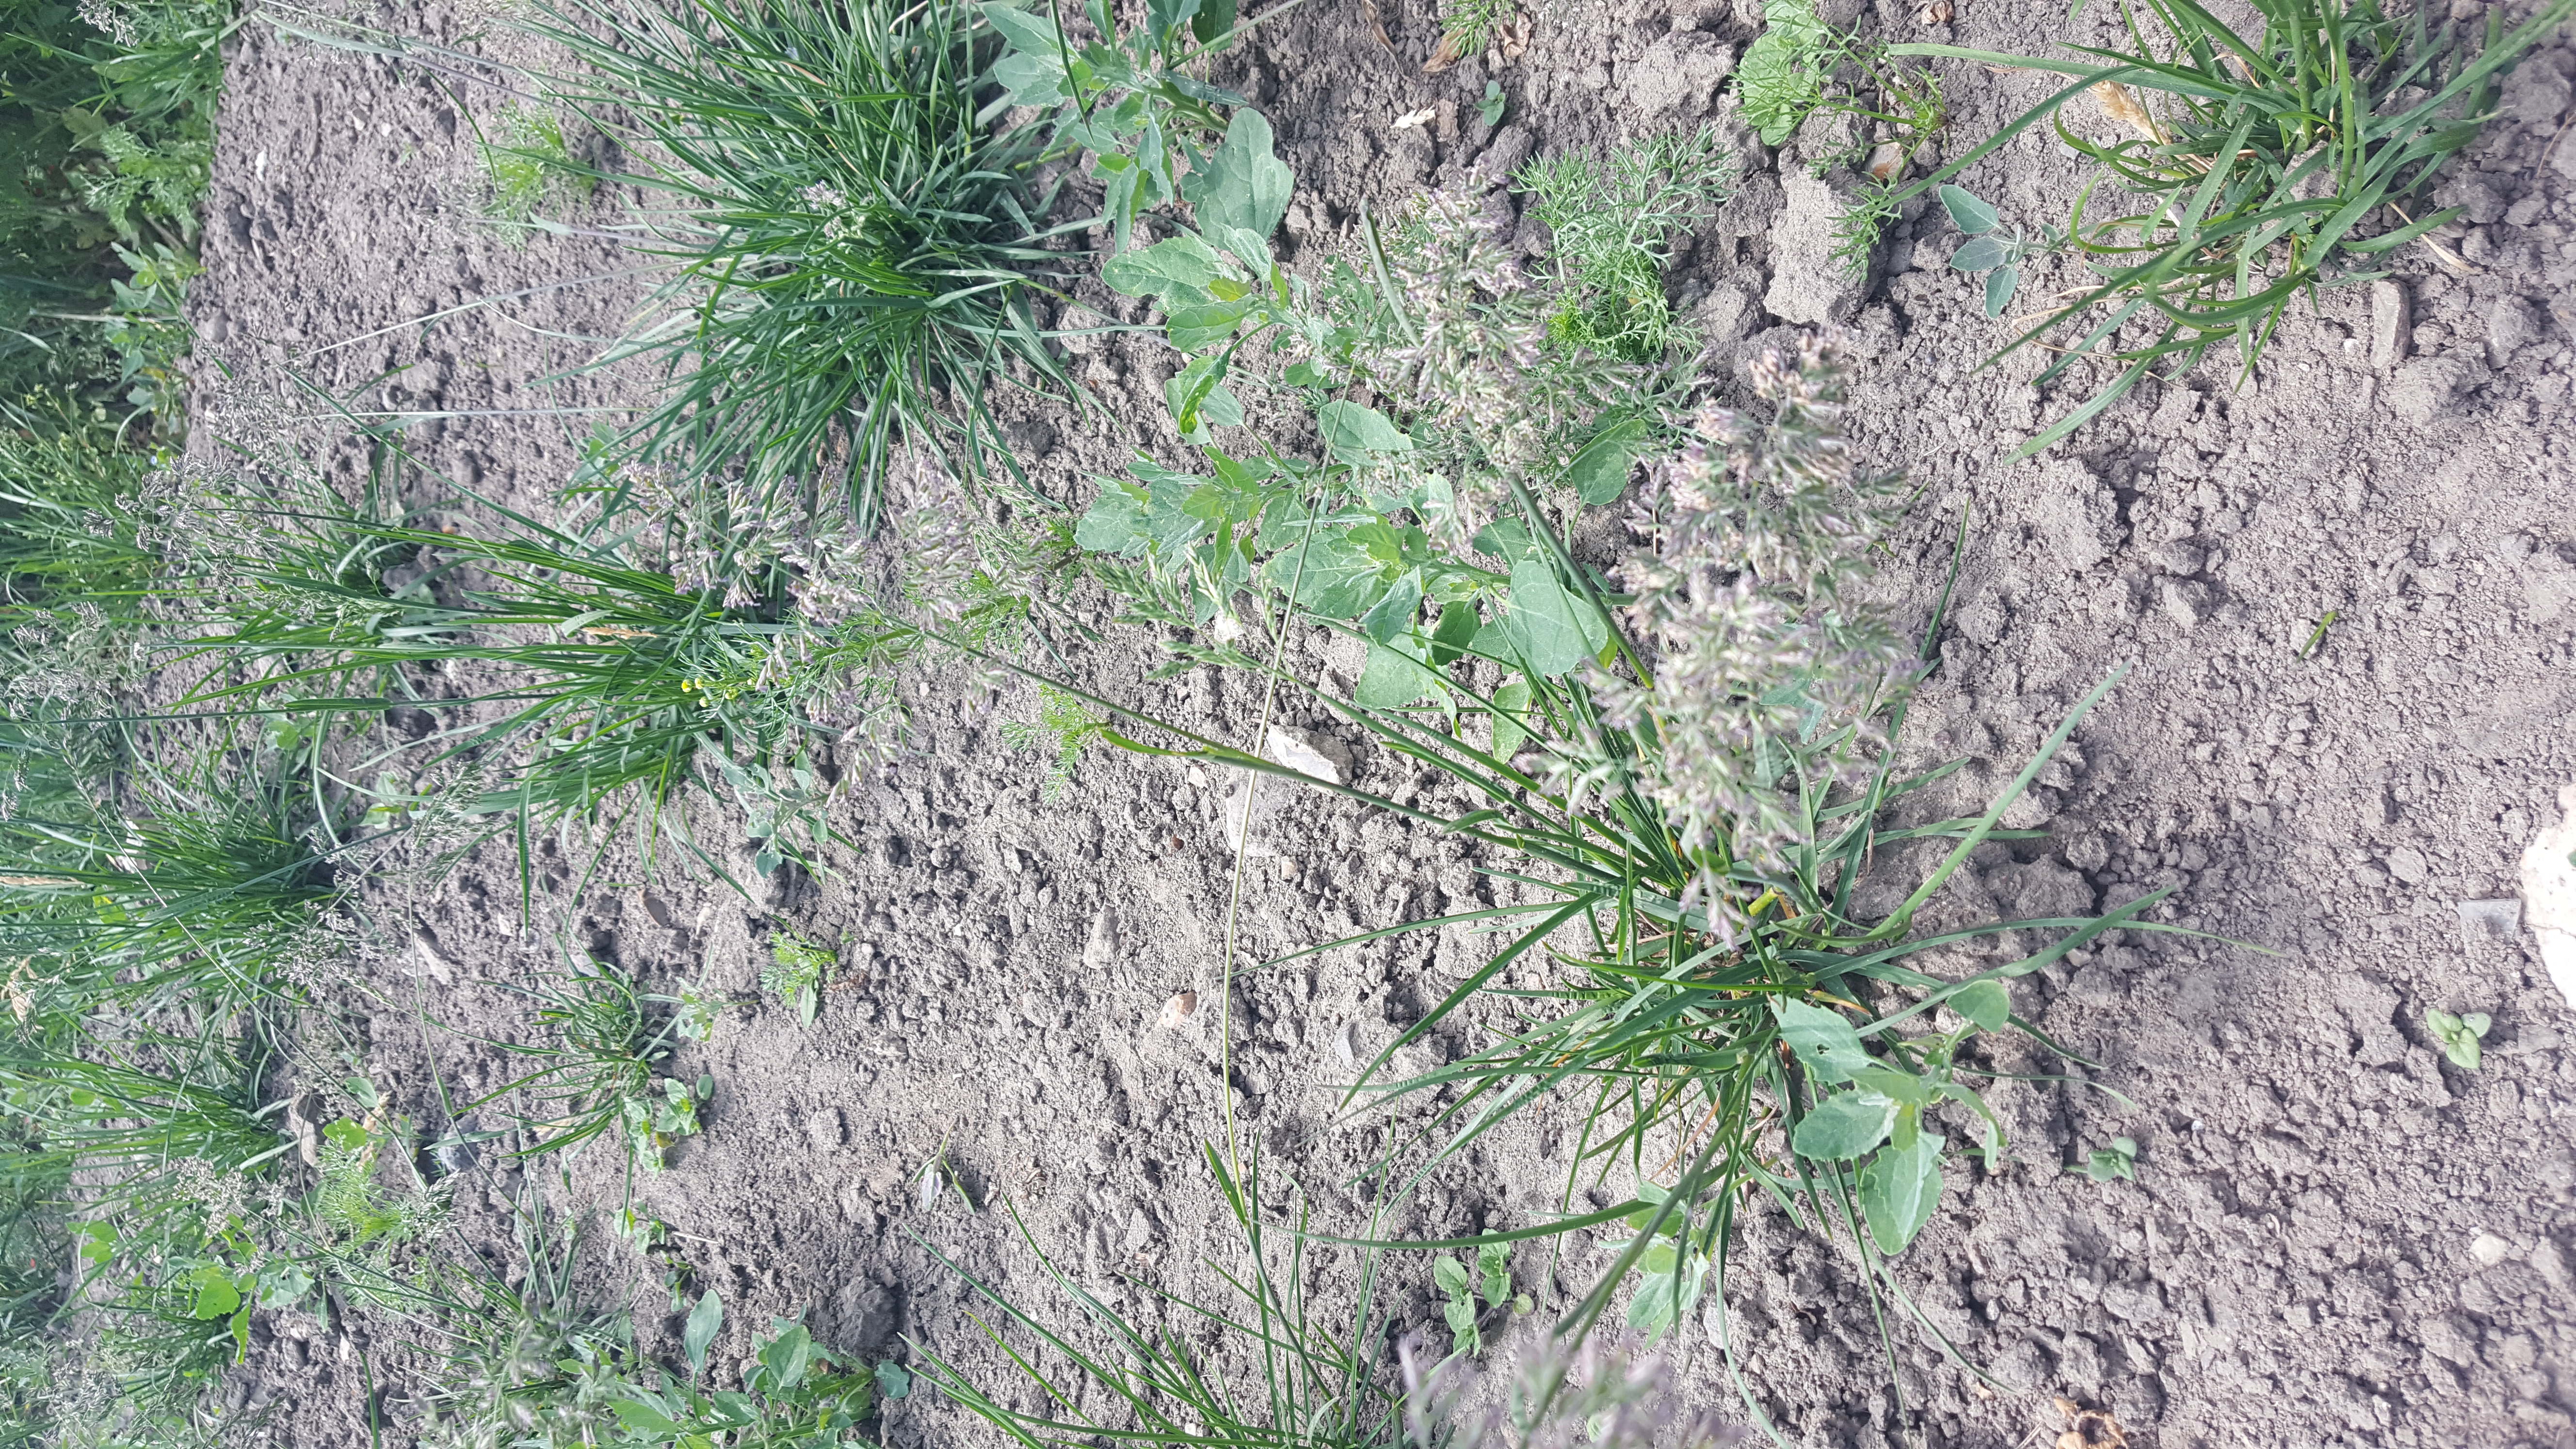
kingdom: Plantae
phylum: Tracheophyta
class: Liliopsida
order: Poales
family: Poaceae
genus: Poa
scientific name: Poa pratensis
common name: Kentucky bluegrass
